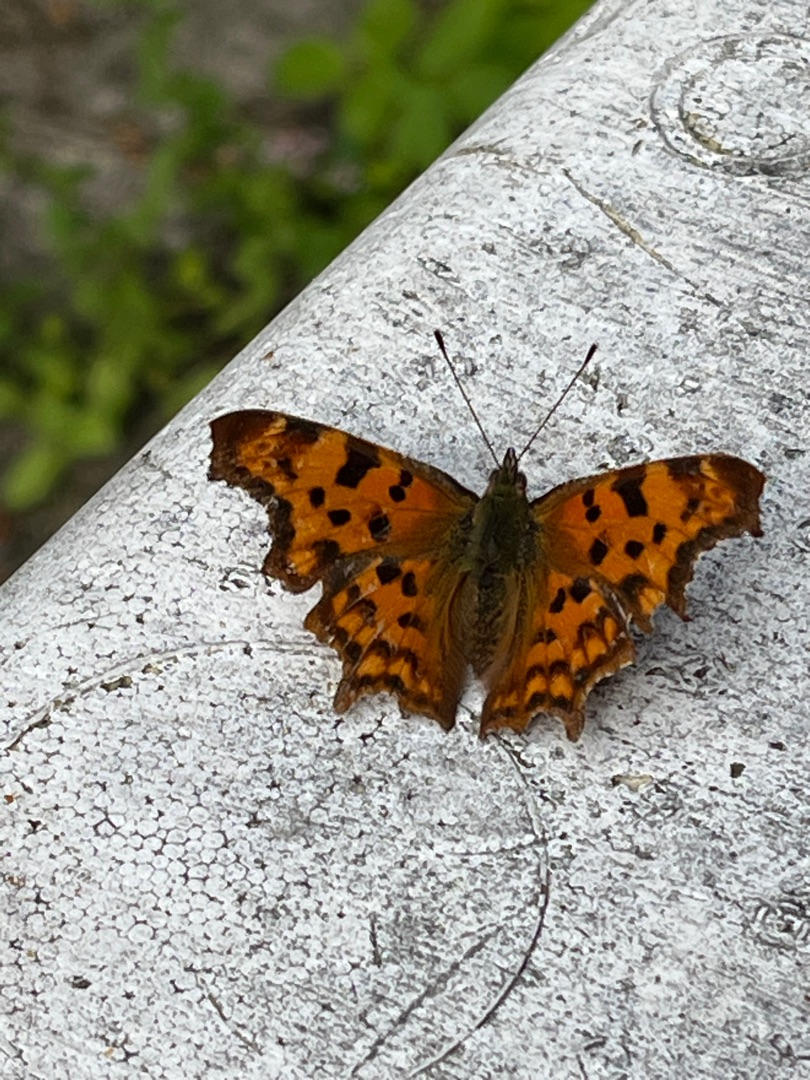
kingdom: Animalia
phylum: Arthropoda
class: Insecta
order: Lepidoptera
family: Nymphalidae
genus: Polygonia
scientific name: Polygonia c-album
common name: Det hvide C
